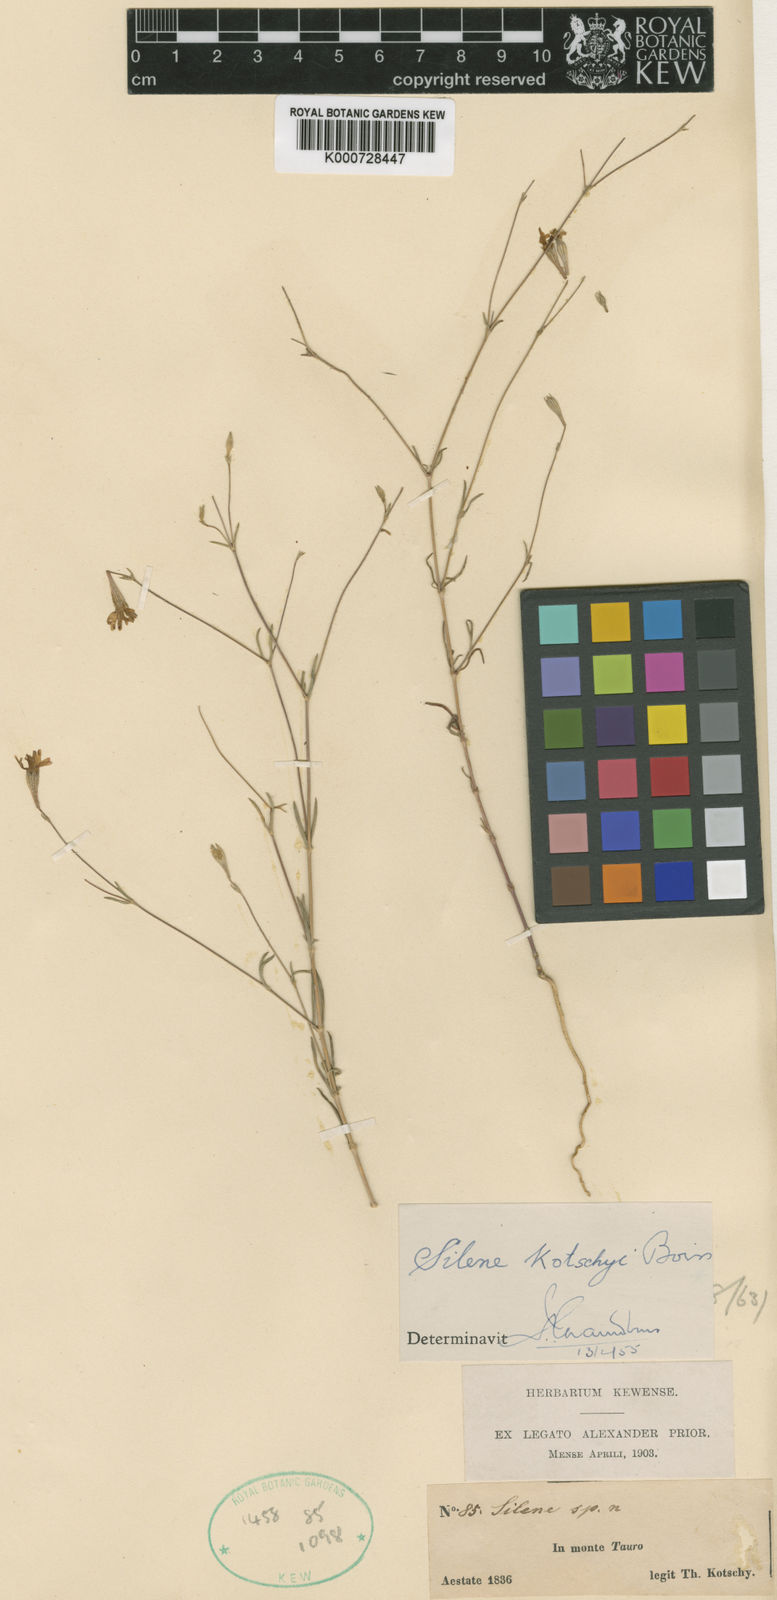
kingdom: Plantae
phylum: Tracheophyta
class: Magnoliopsida
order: Caryophyllales
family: Caryophyllaceae
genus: Silene
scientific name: Silene microsperma
